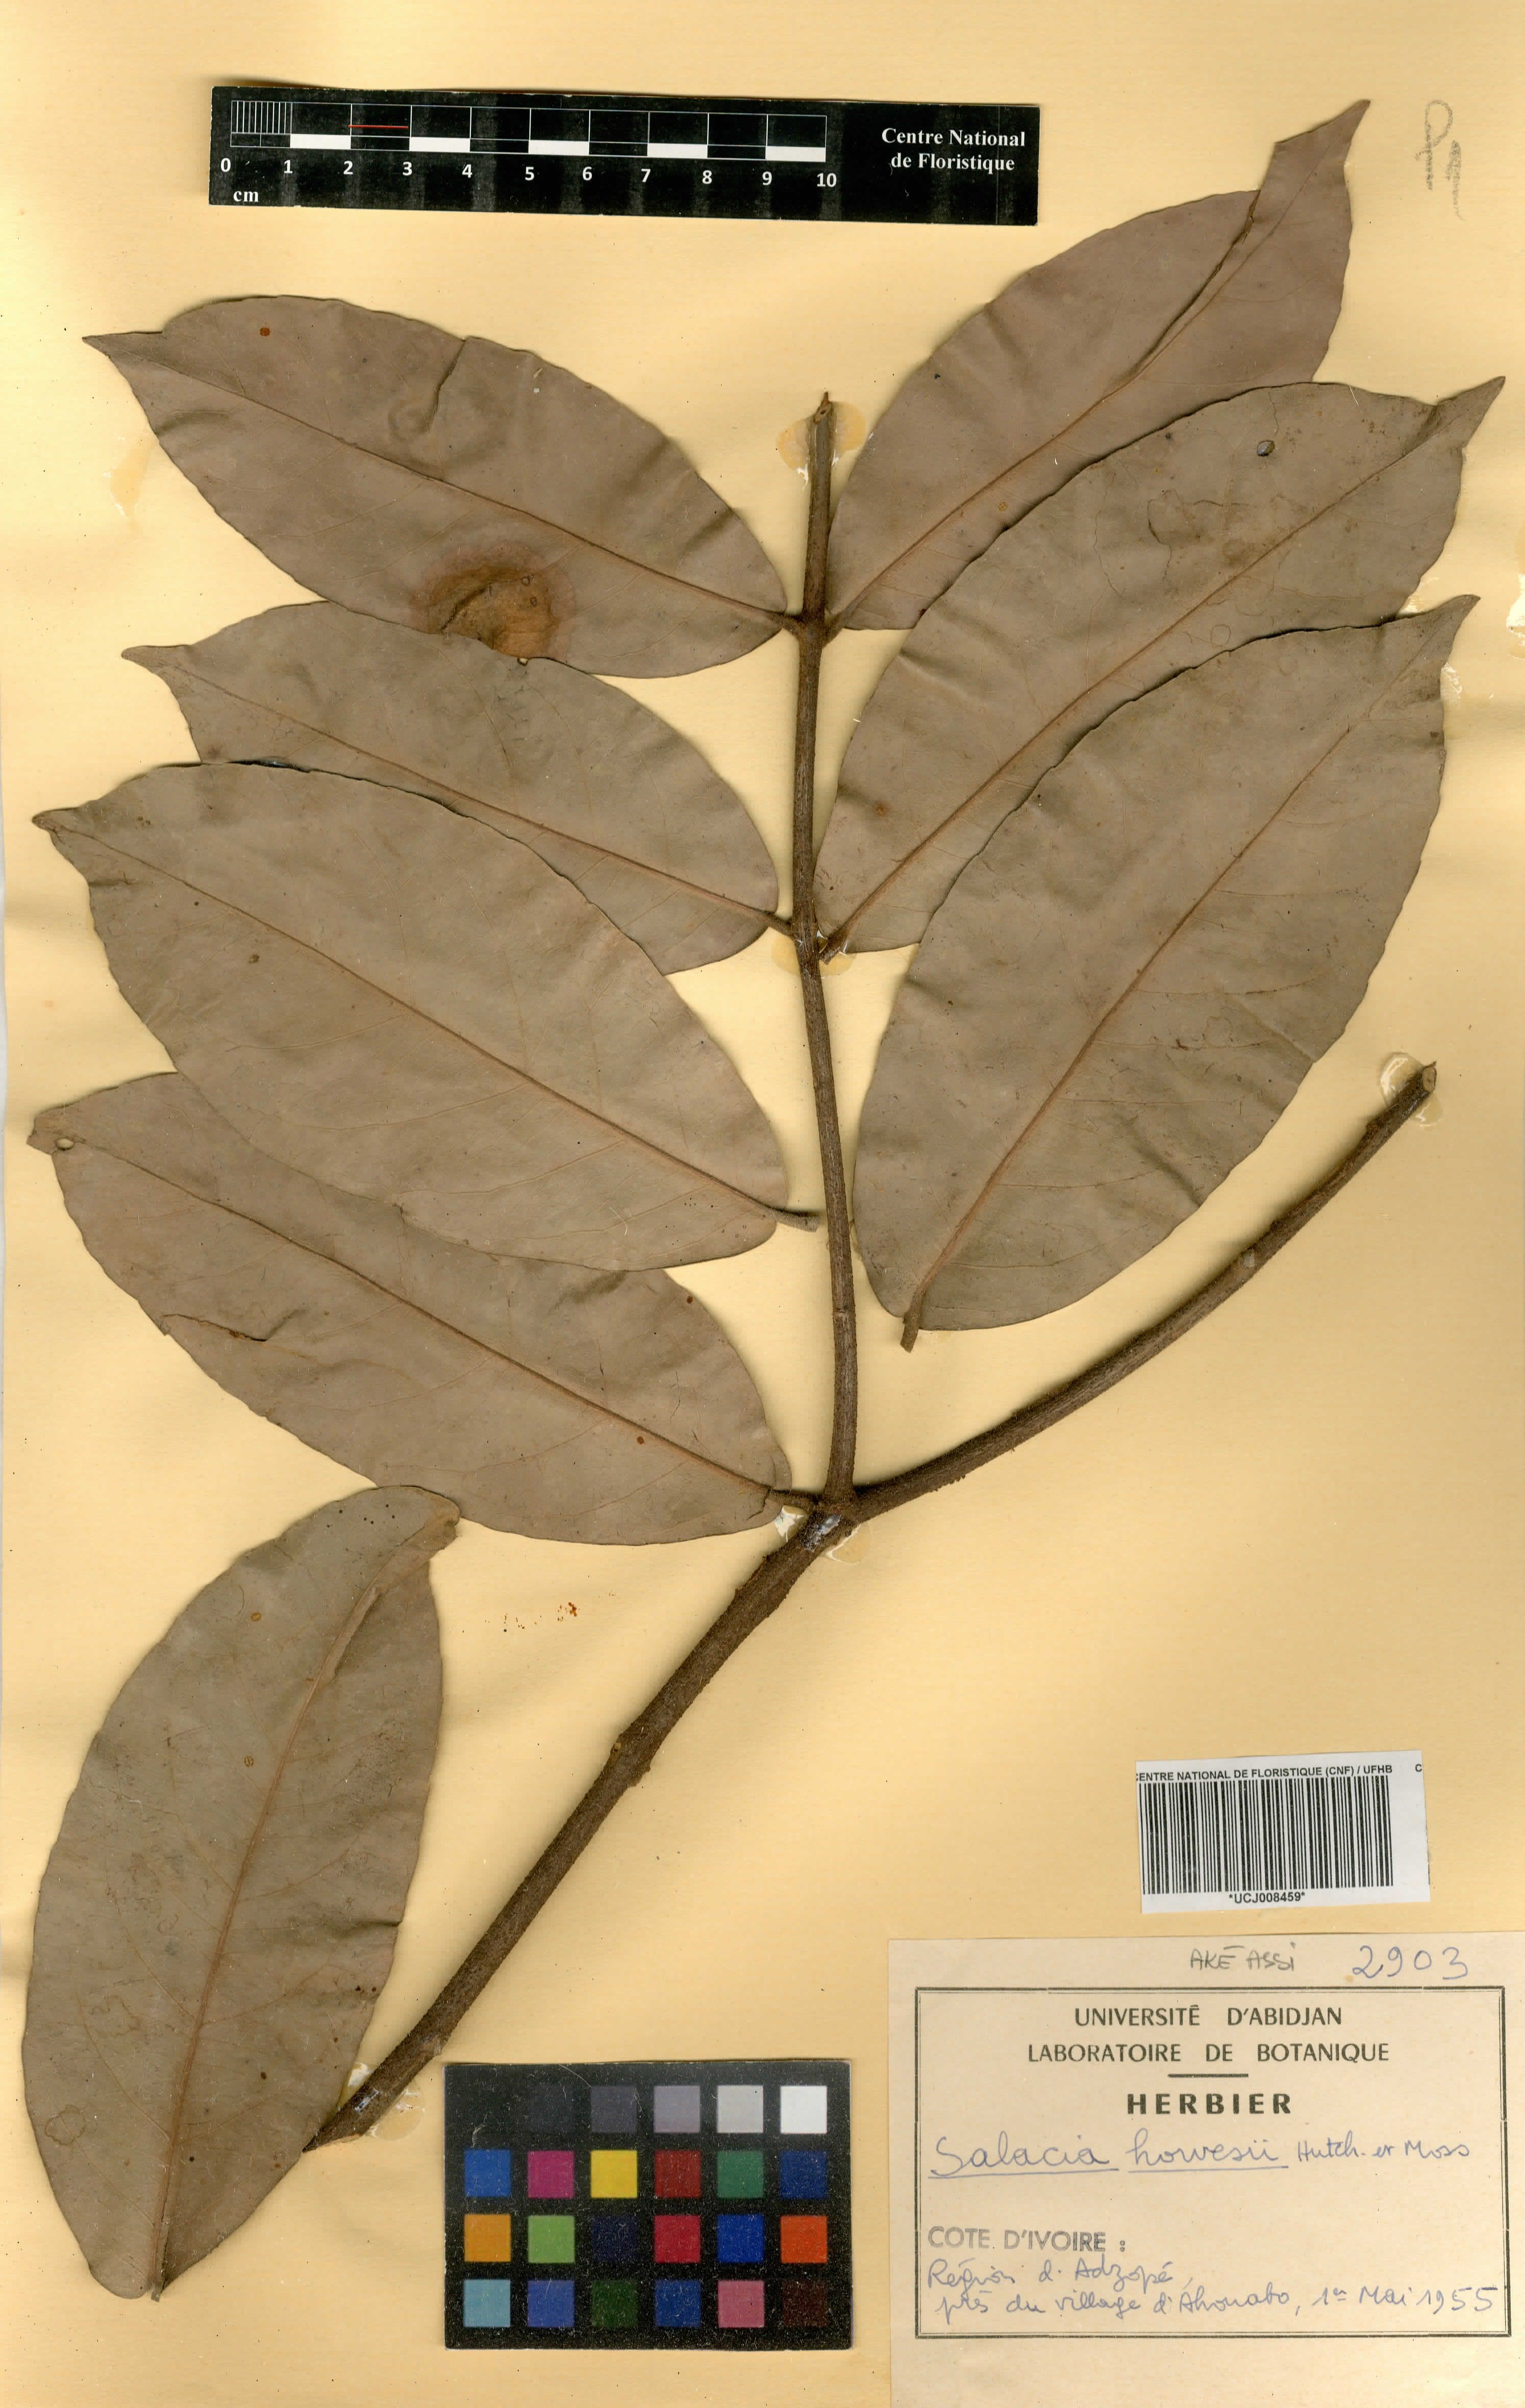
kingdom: Plantae
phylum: Tracheophyta
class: Magnoliopsida
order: Celastrales
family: Celastraceae
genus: Salacia
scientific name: Salacia howesii
